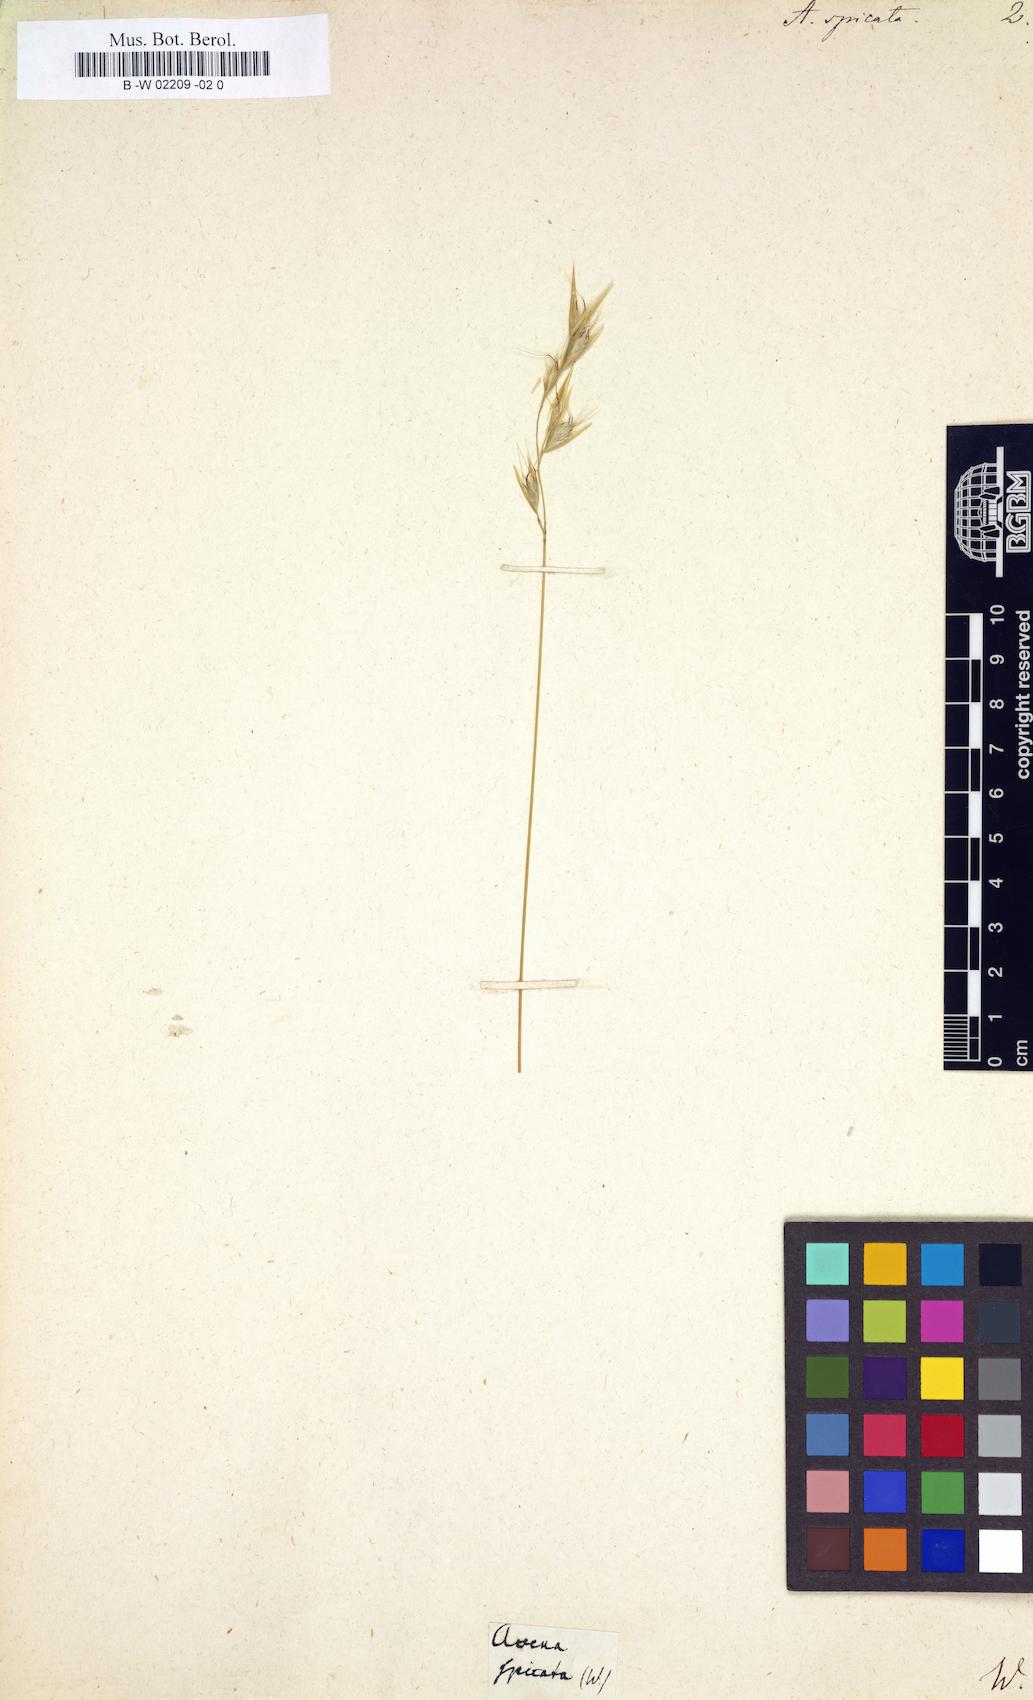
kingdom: Plantae
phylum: Tracheophyta
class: Liliopsida
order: Poales
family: Poaceae
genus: Danthonia
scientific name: Danthonia spicata
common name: Common wild oatgrass
